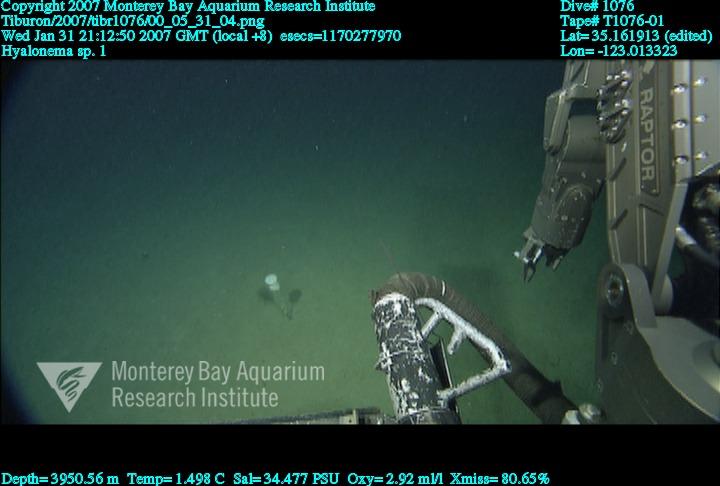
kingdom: Animalia
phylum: Porifera
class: Hexactinellida
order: Amphidiscosida
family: Hyalonematidae
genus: Hyalonema
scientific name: Hyalonema
